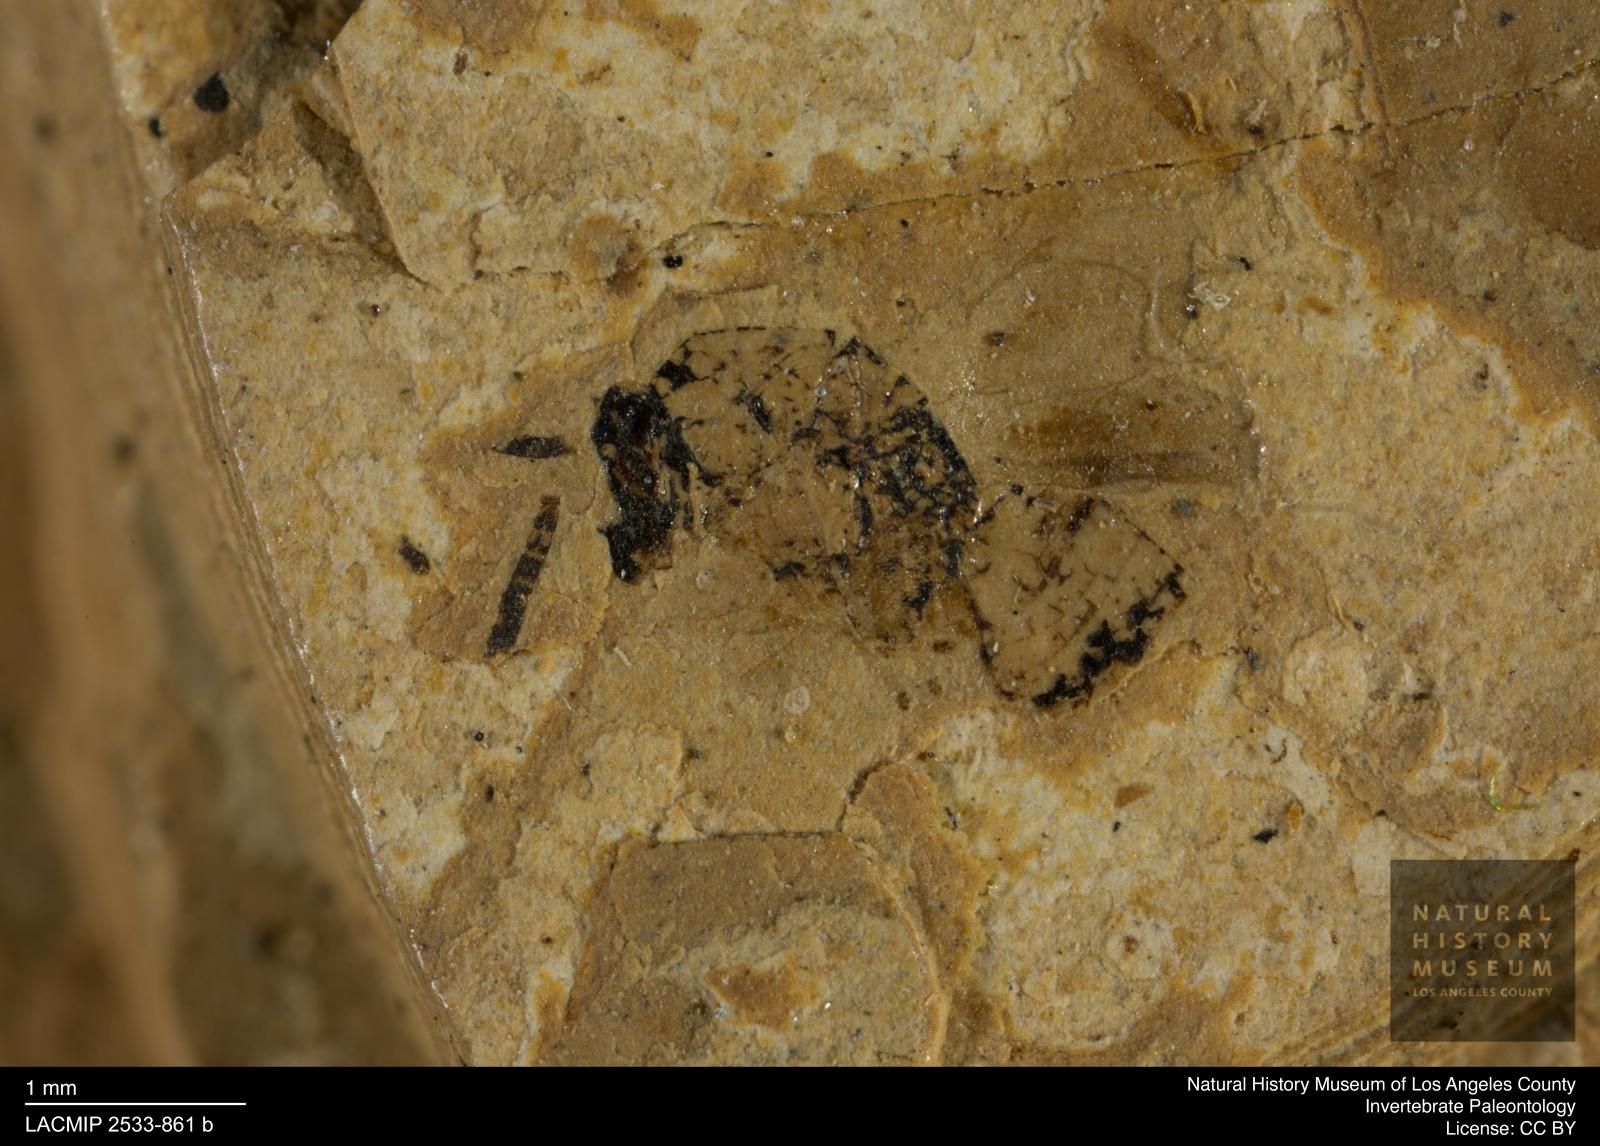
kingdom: Animalia
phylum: Arthropoda
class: Insecta
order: Hymenoptera
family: Pteromalidae
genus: Pteromalus
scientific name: Pteromalus rottensis
